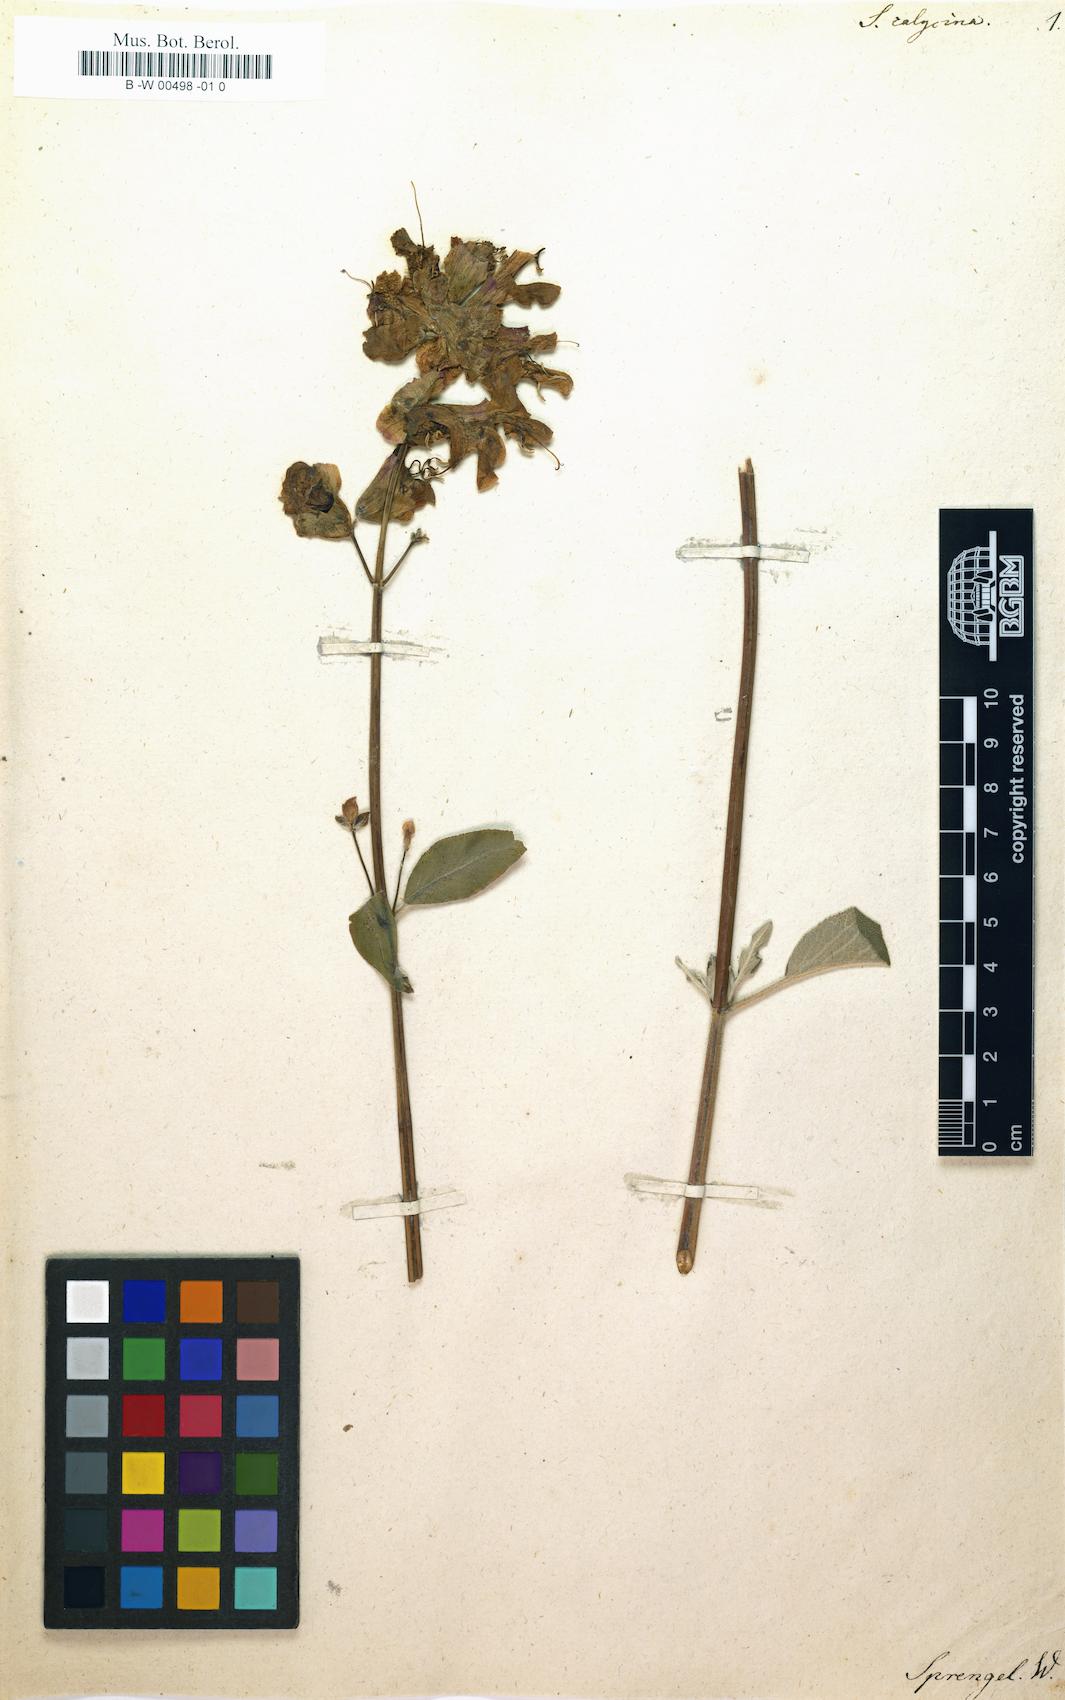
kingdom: Plantae
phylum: Tracheophyta
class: Magnoliopsida
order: Lamiales
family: Lamiaceae
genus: Salvia
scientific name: Salvia pomifera
